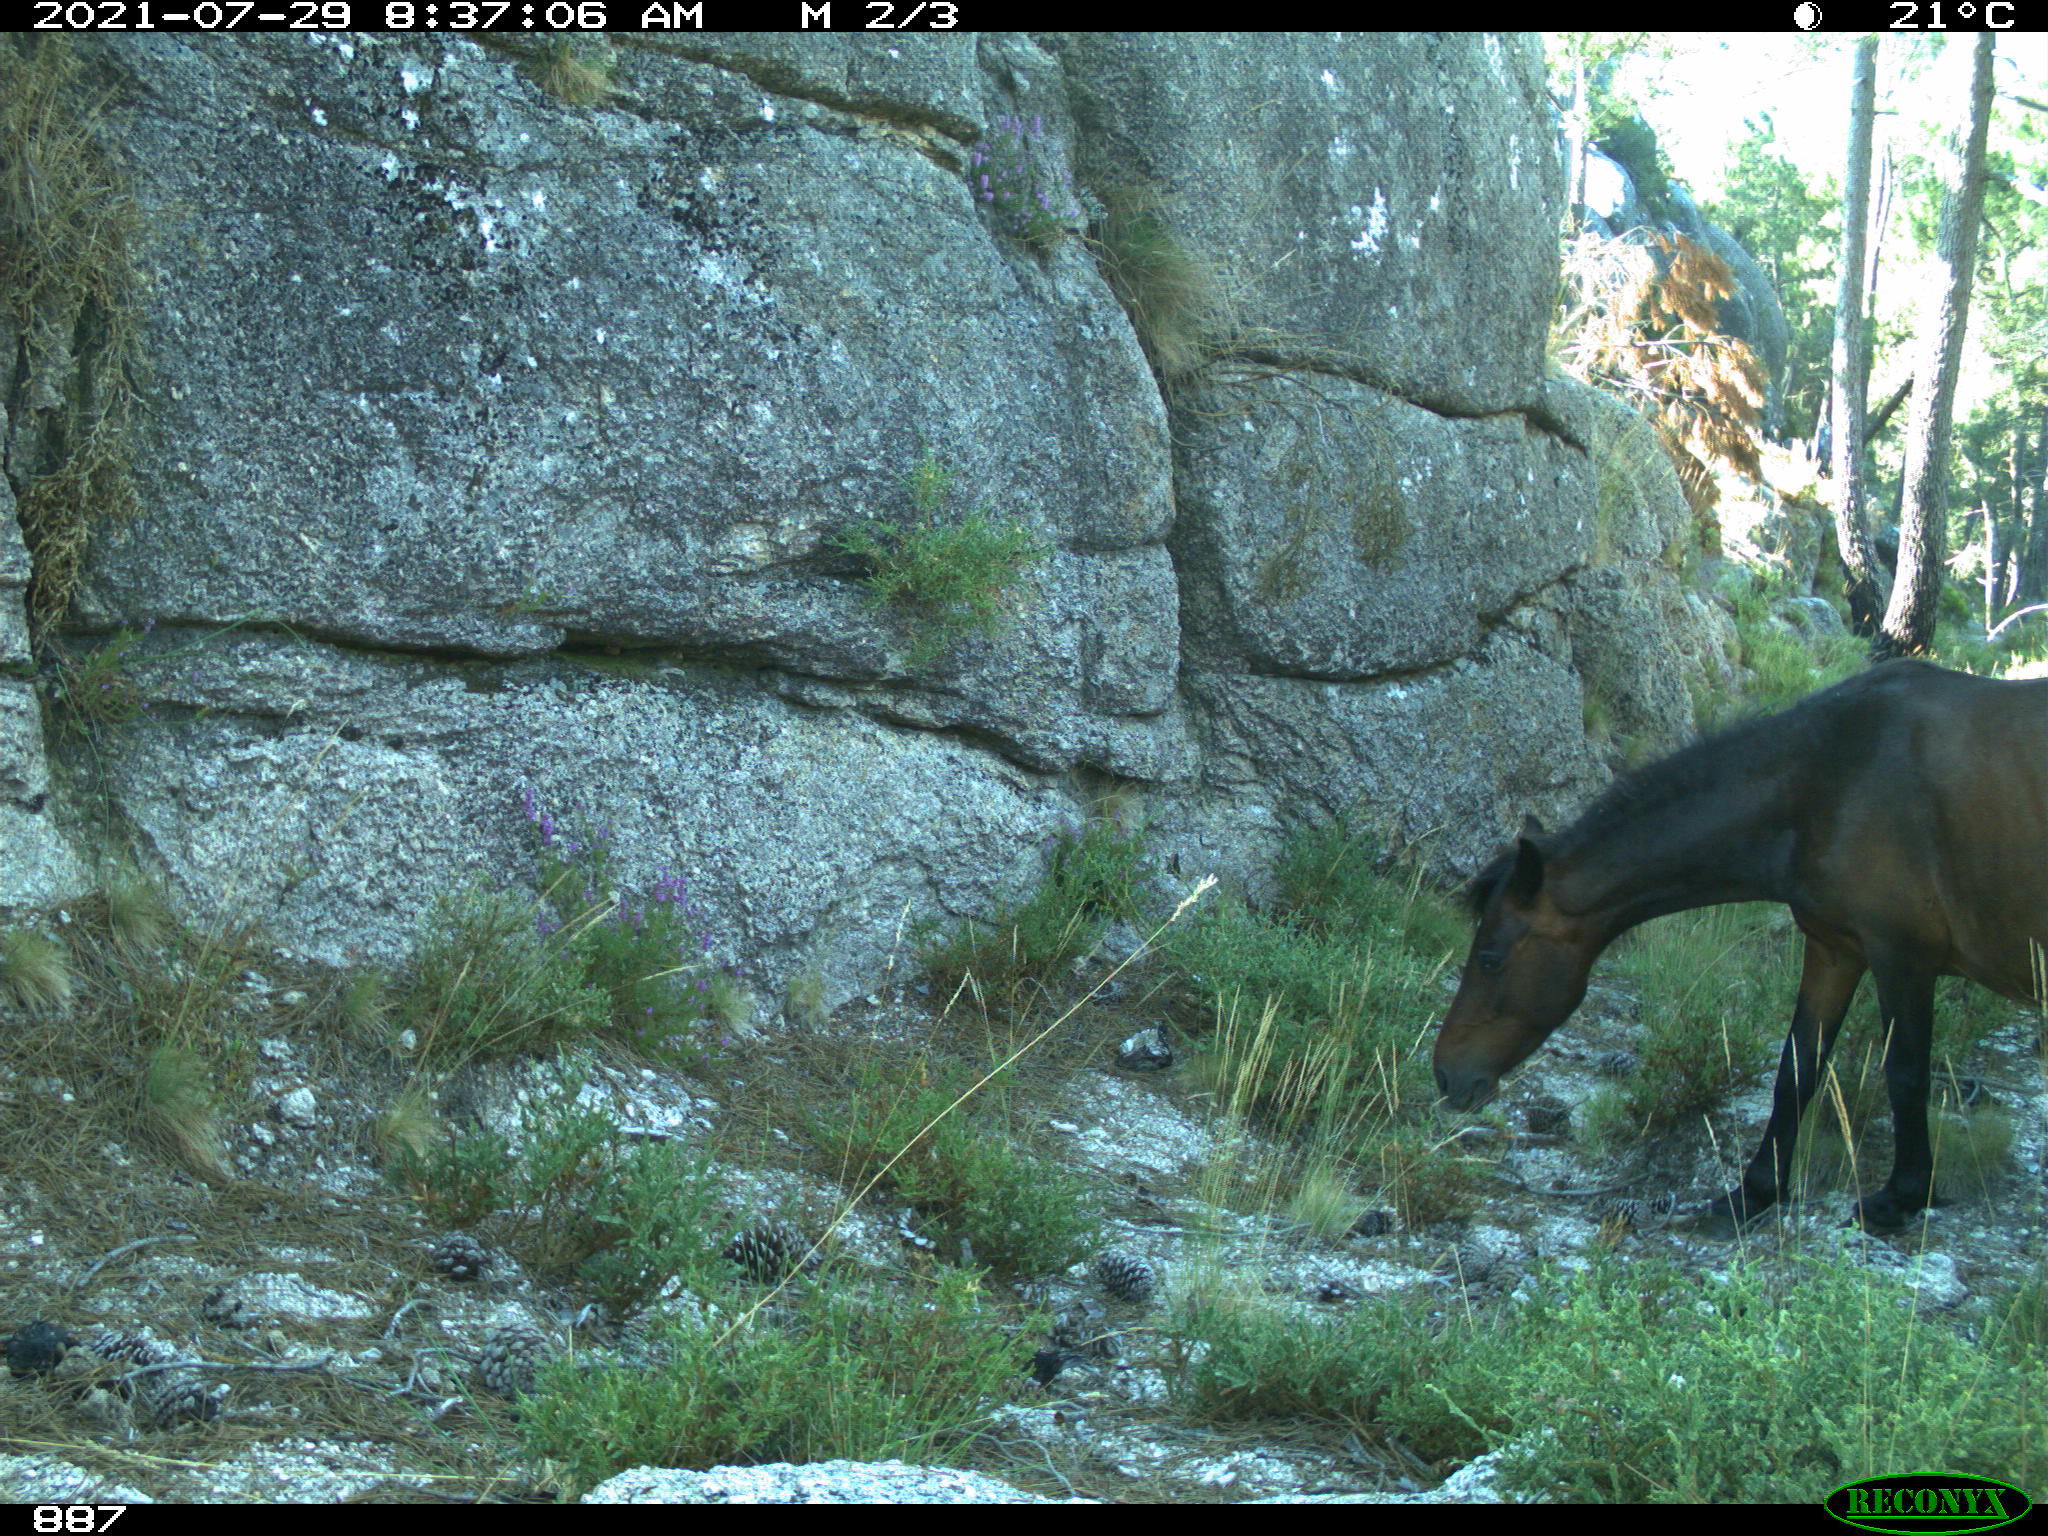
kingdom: Animalia
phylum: Chordata
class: Mammalia
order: Perissodactyla
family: Equidae
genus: Equus
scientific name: Equus caballus
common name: Horse
